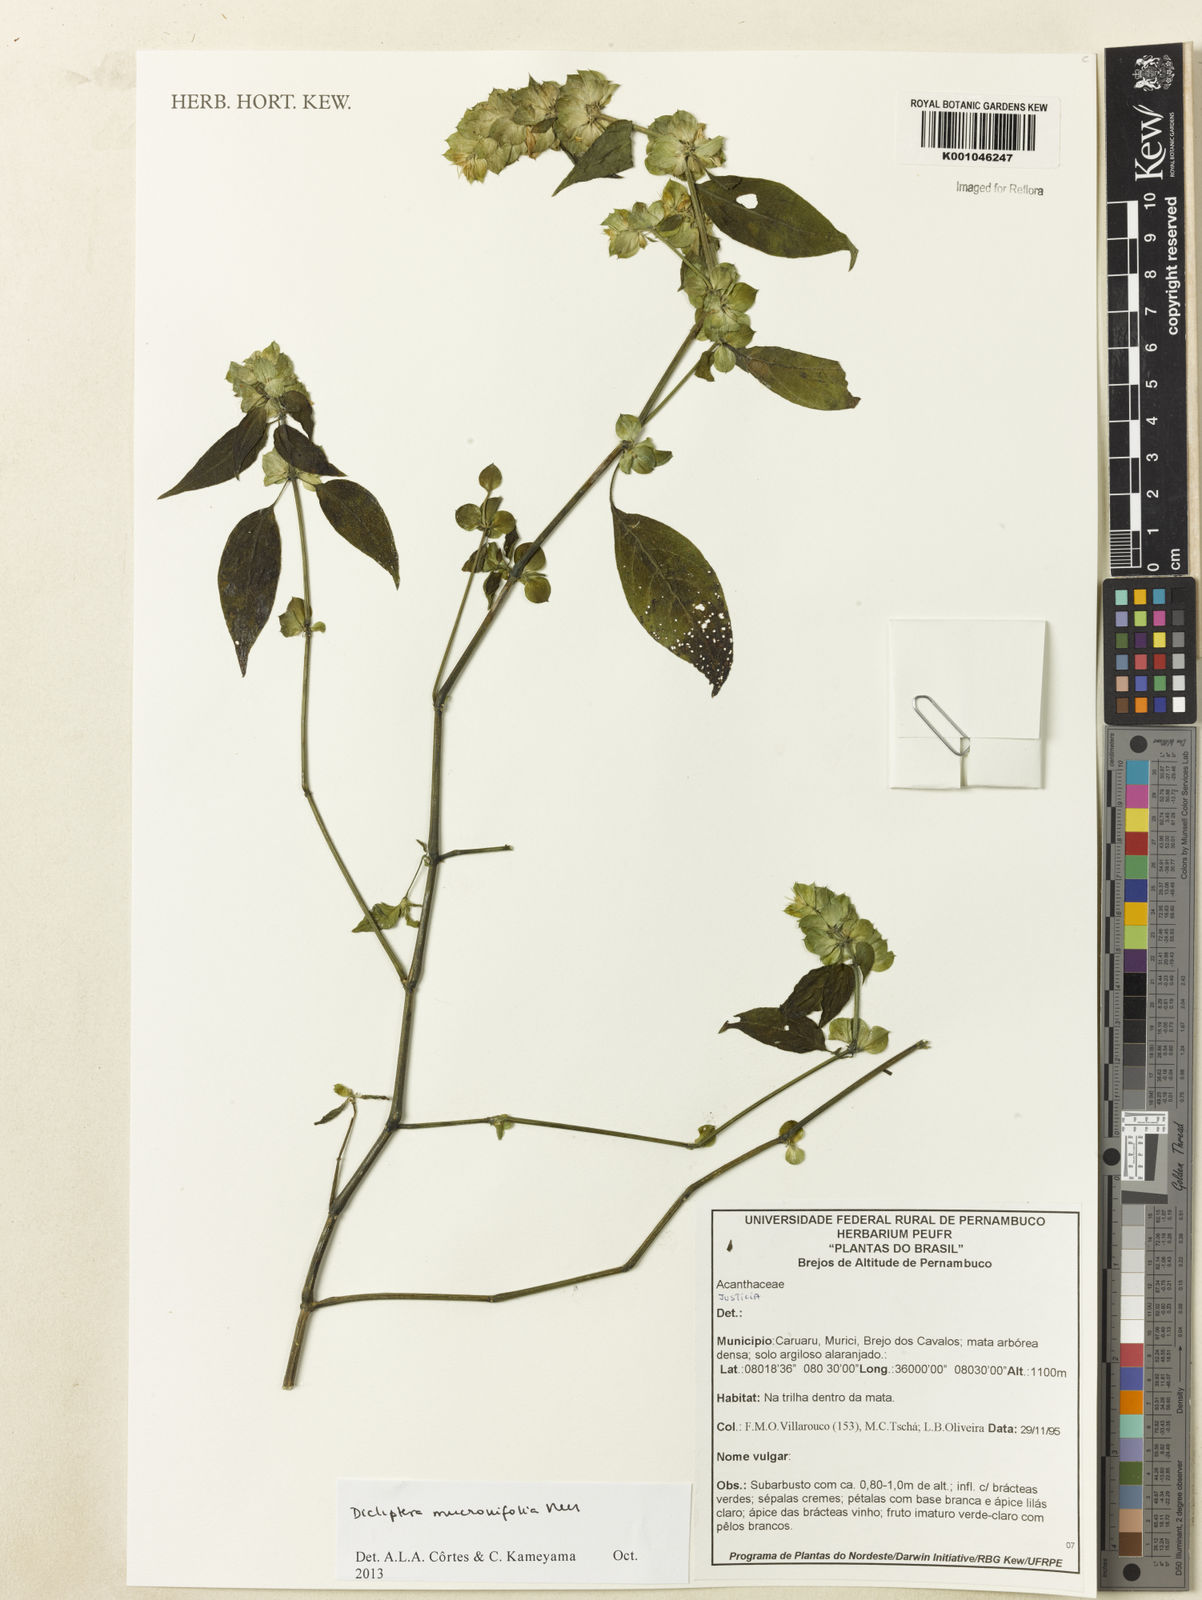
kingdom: Plantae
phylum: Tracheophyta
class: Magnoliopsida
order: Lamiales
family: Acanthaceae
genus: Dicliptera
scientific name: Dicliptera mucronifolia
